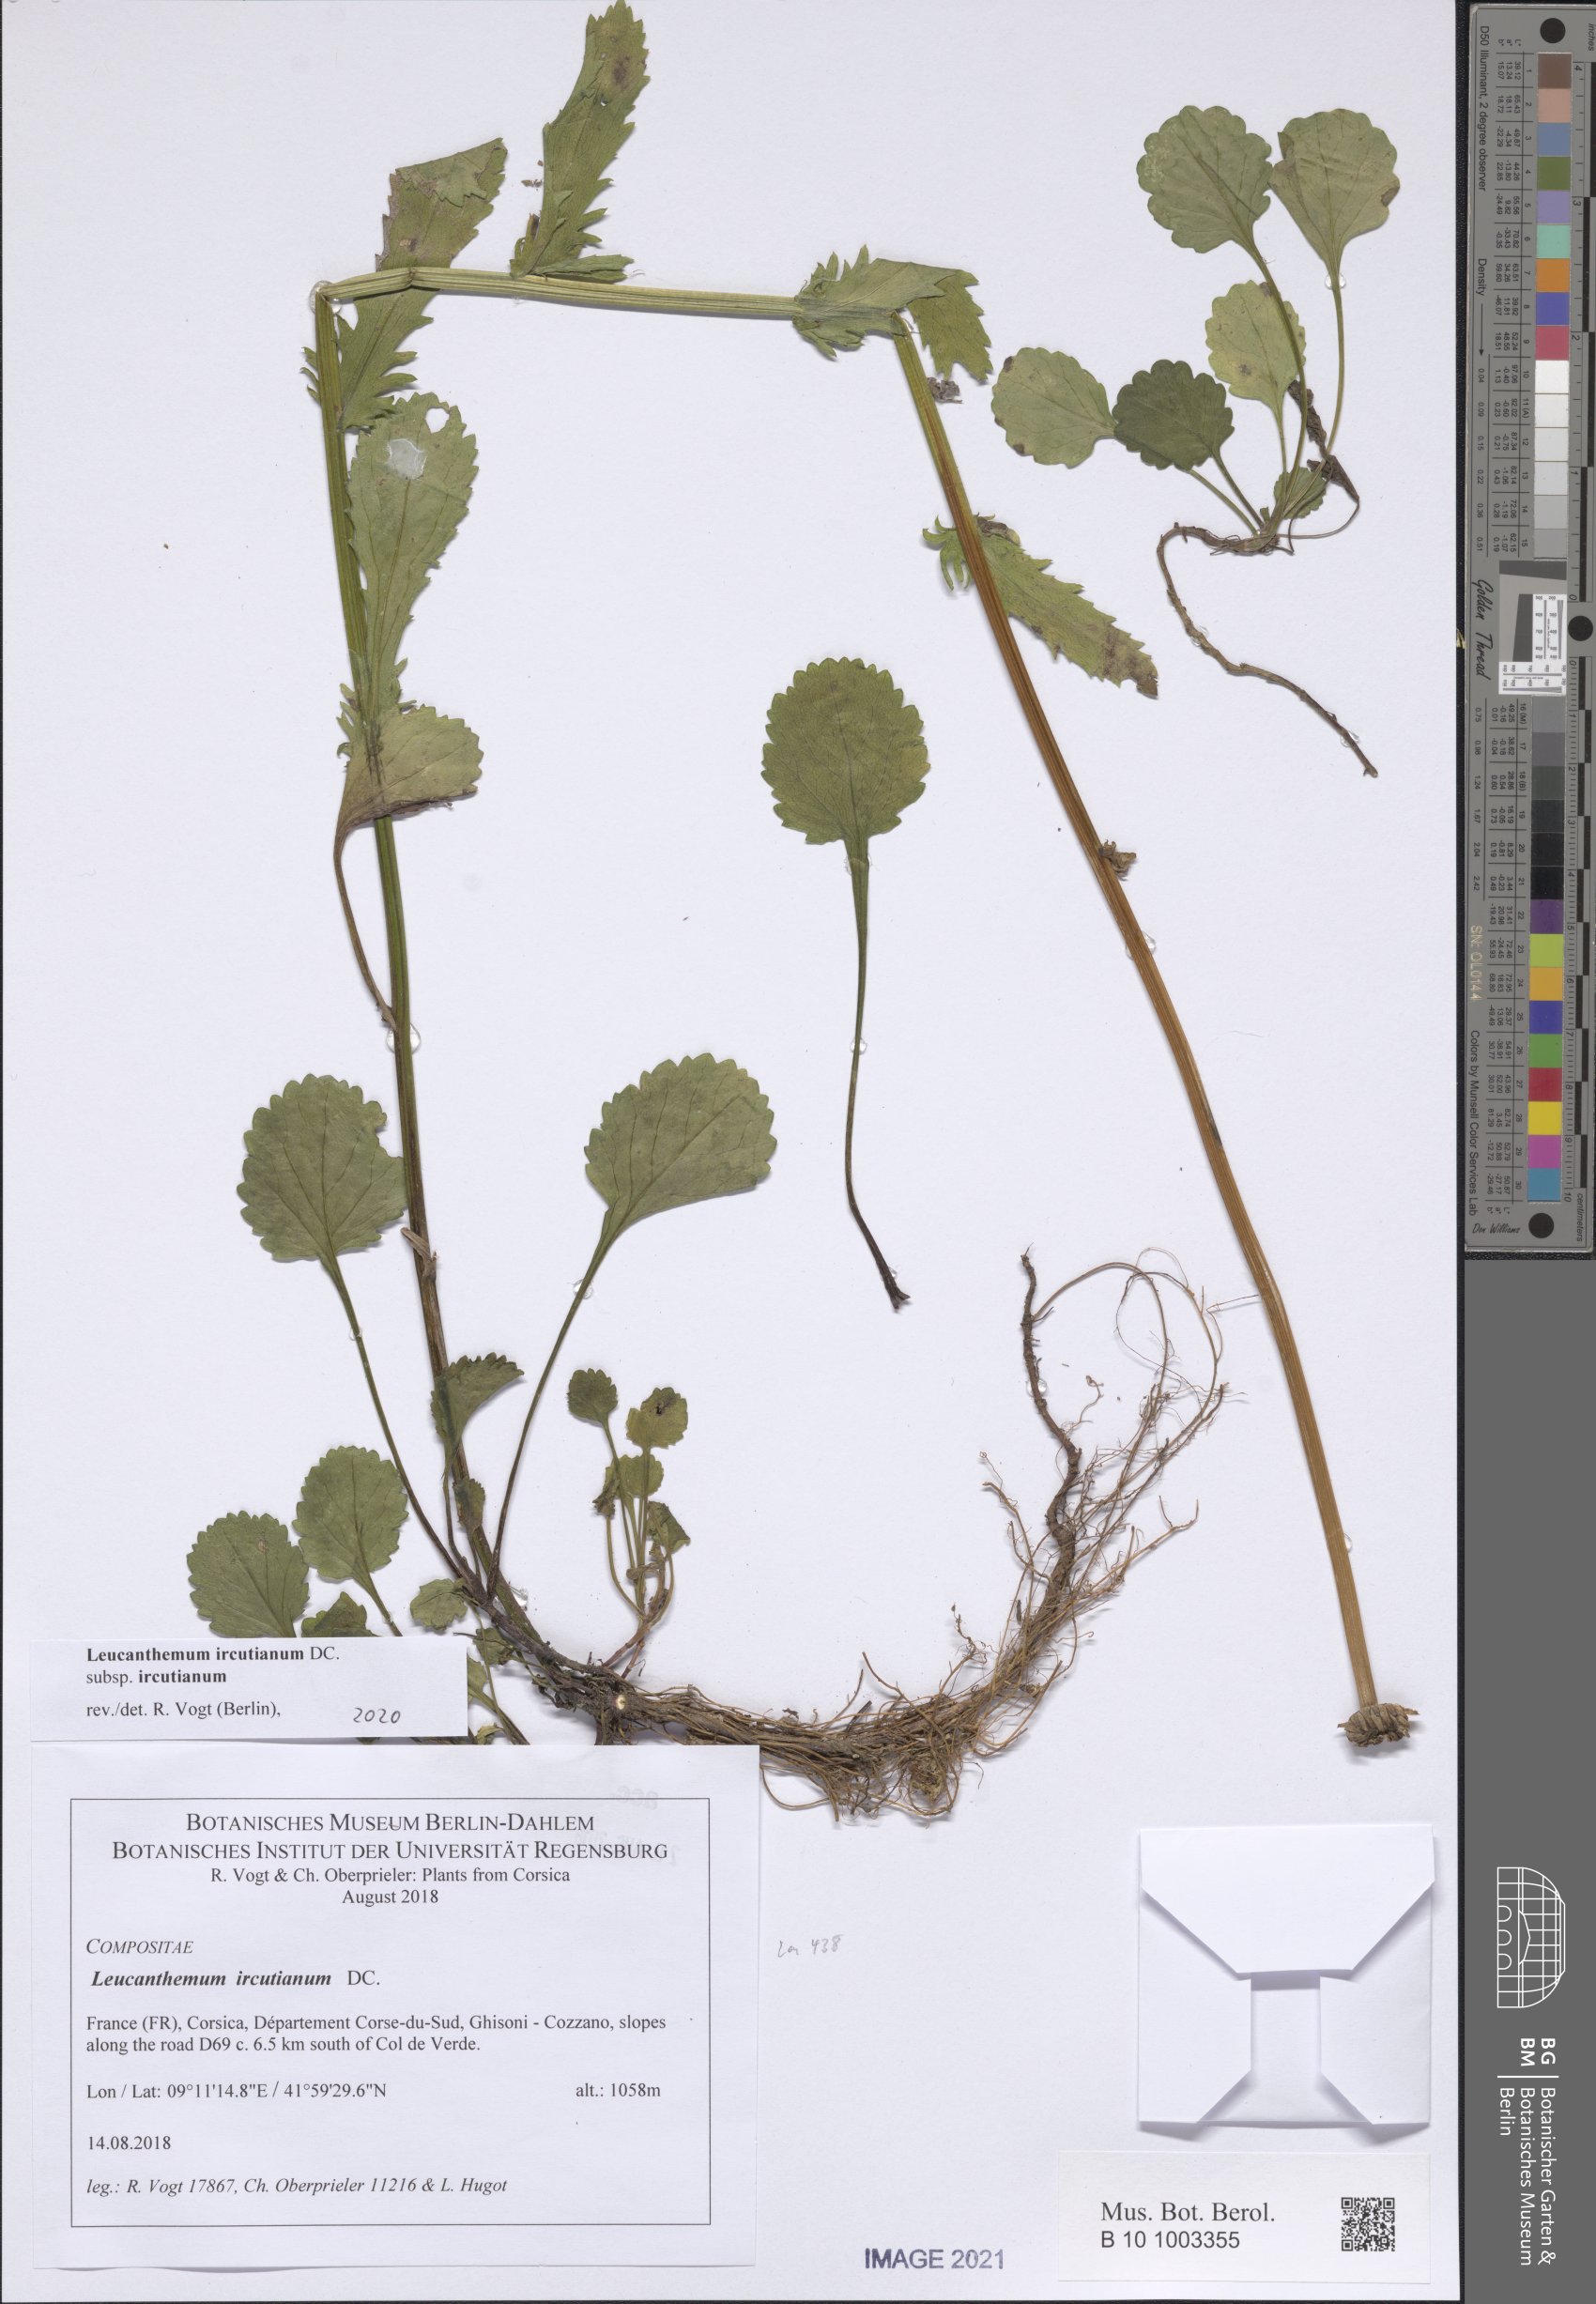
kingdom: Plantae
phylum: Tracheophyta
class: Magnoliopsida
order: Asterales
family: Asteraceae
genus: Leucanthemum
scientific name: Leucanthemum ircutianum
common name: Daisy
